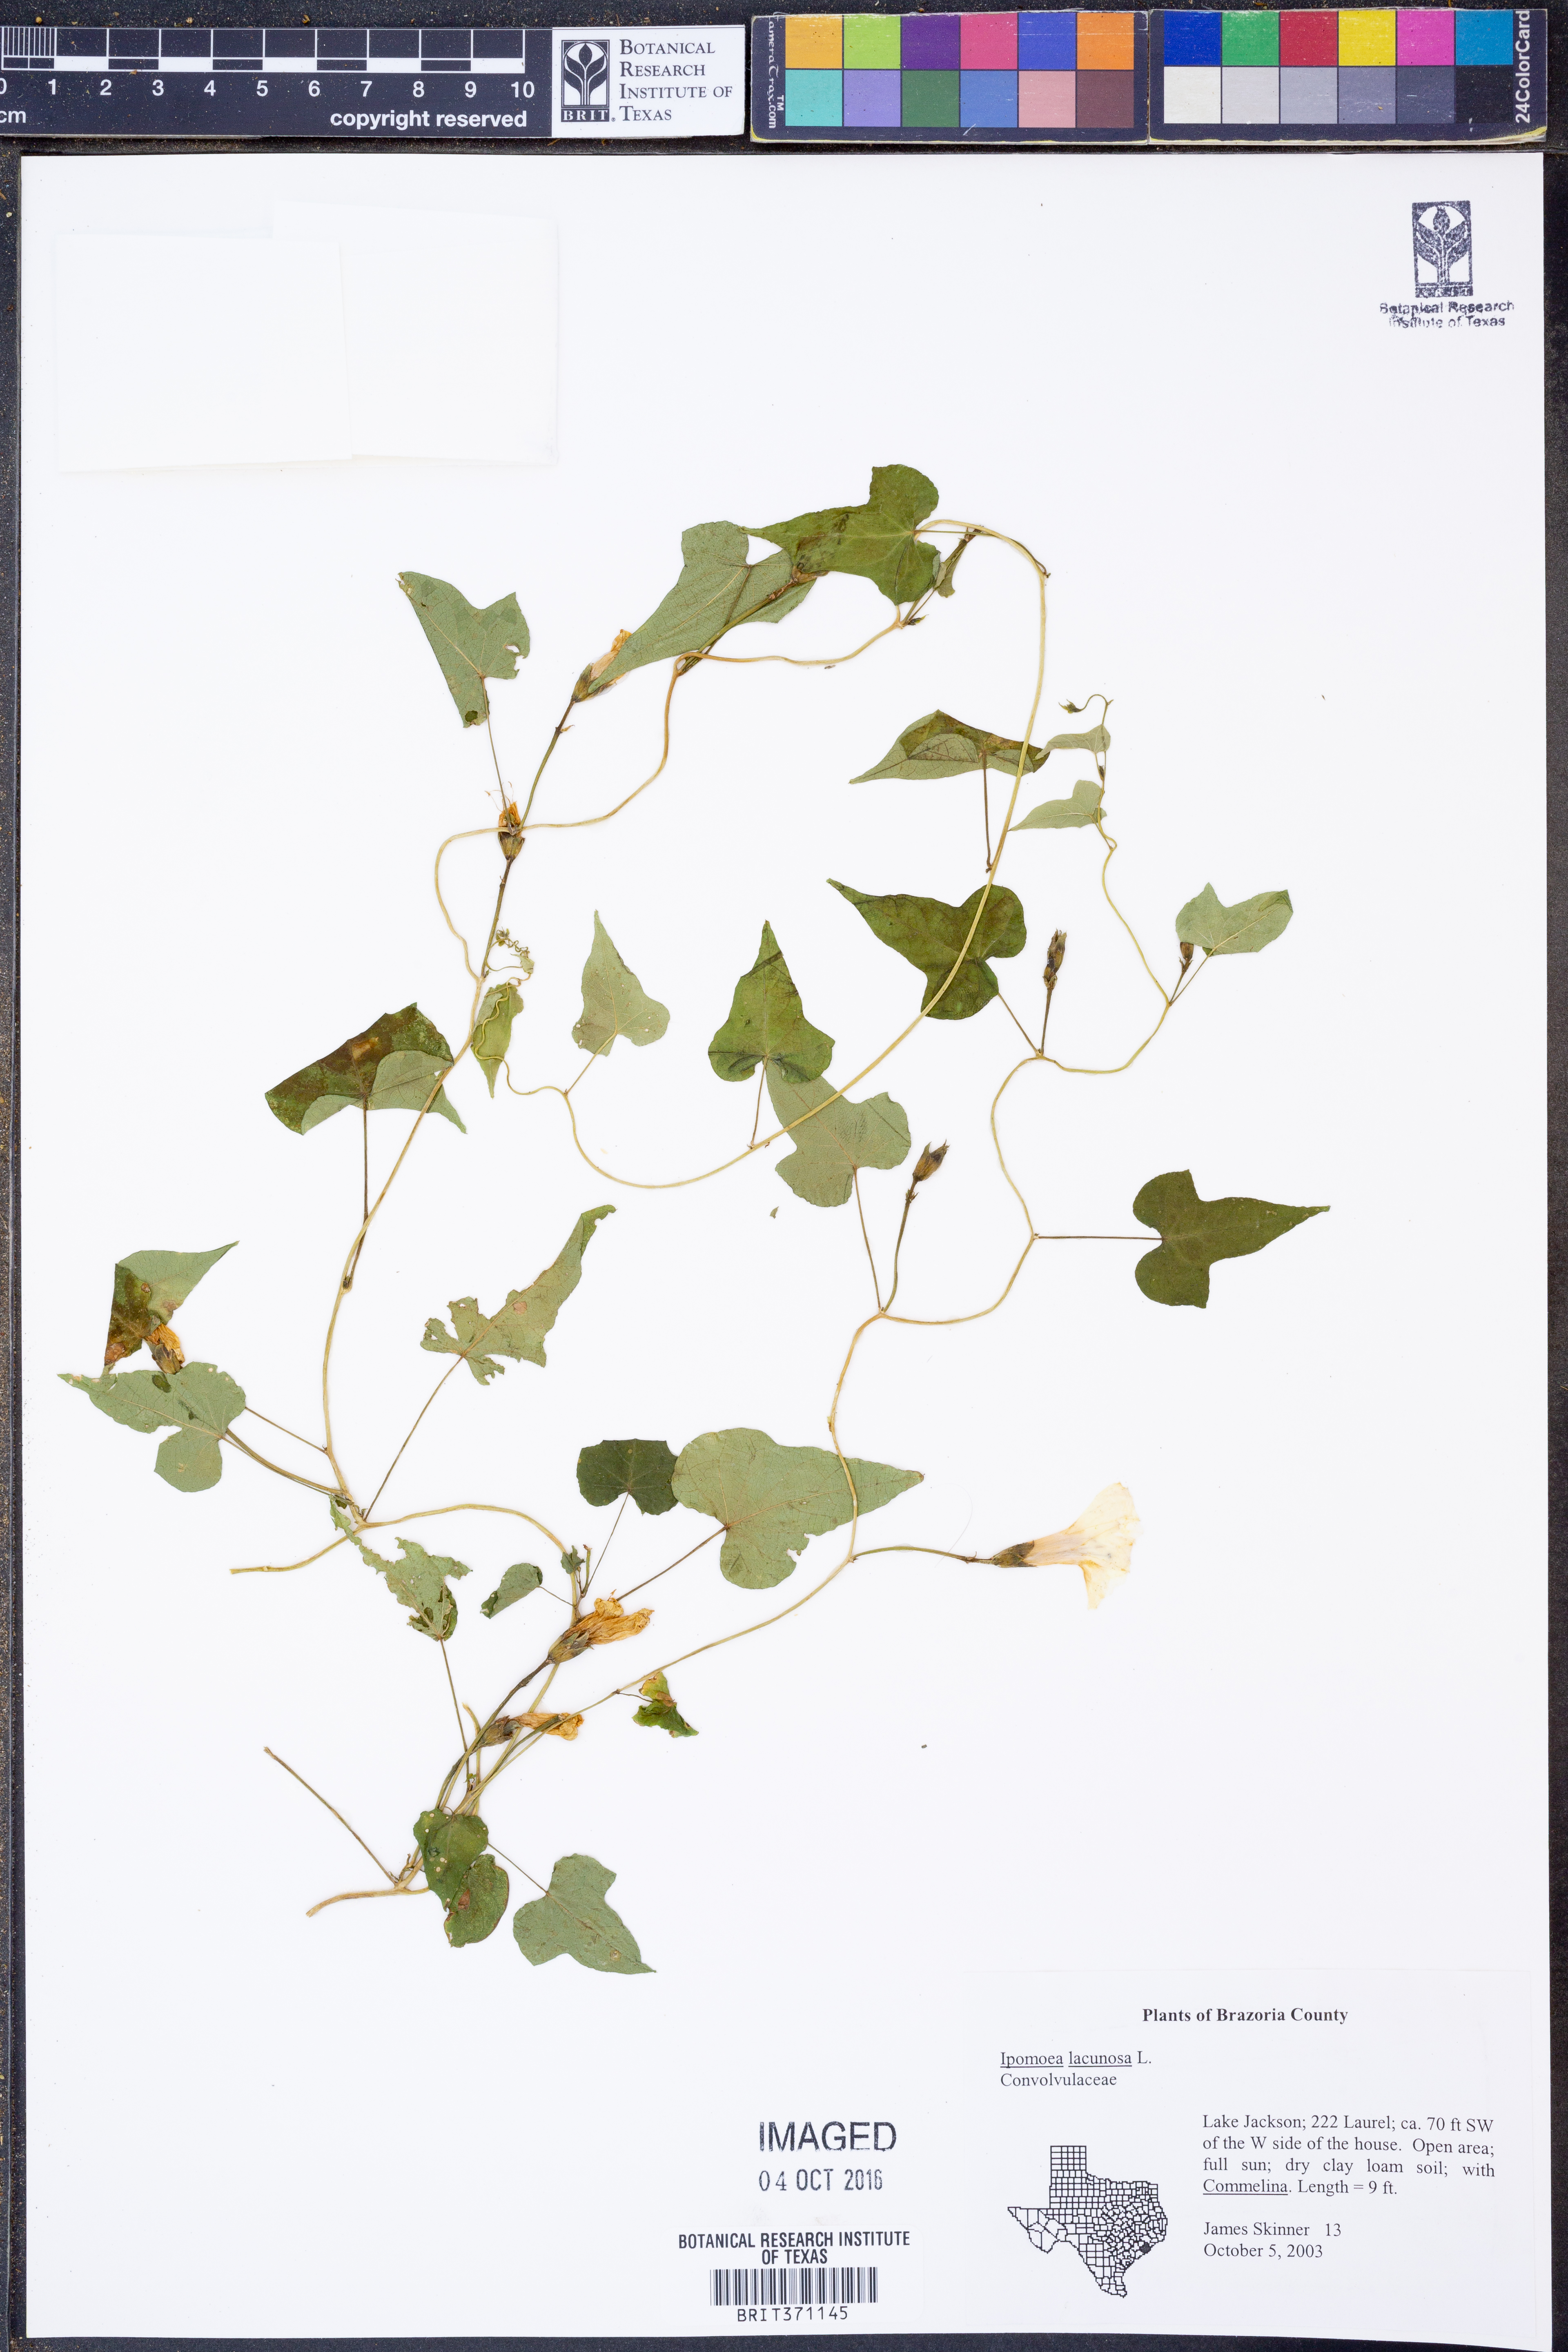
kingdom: Plantae
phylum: Tracheophyta
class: Magnoliopsida
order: Solanales
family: Convolvulaceae
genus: Ipomoea
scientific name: Ipomoea lacunosa
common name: White morning-glory
